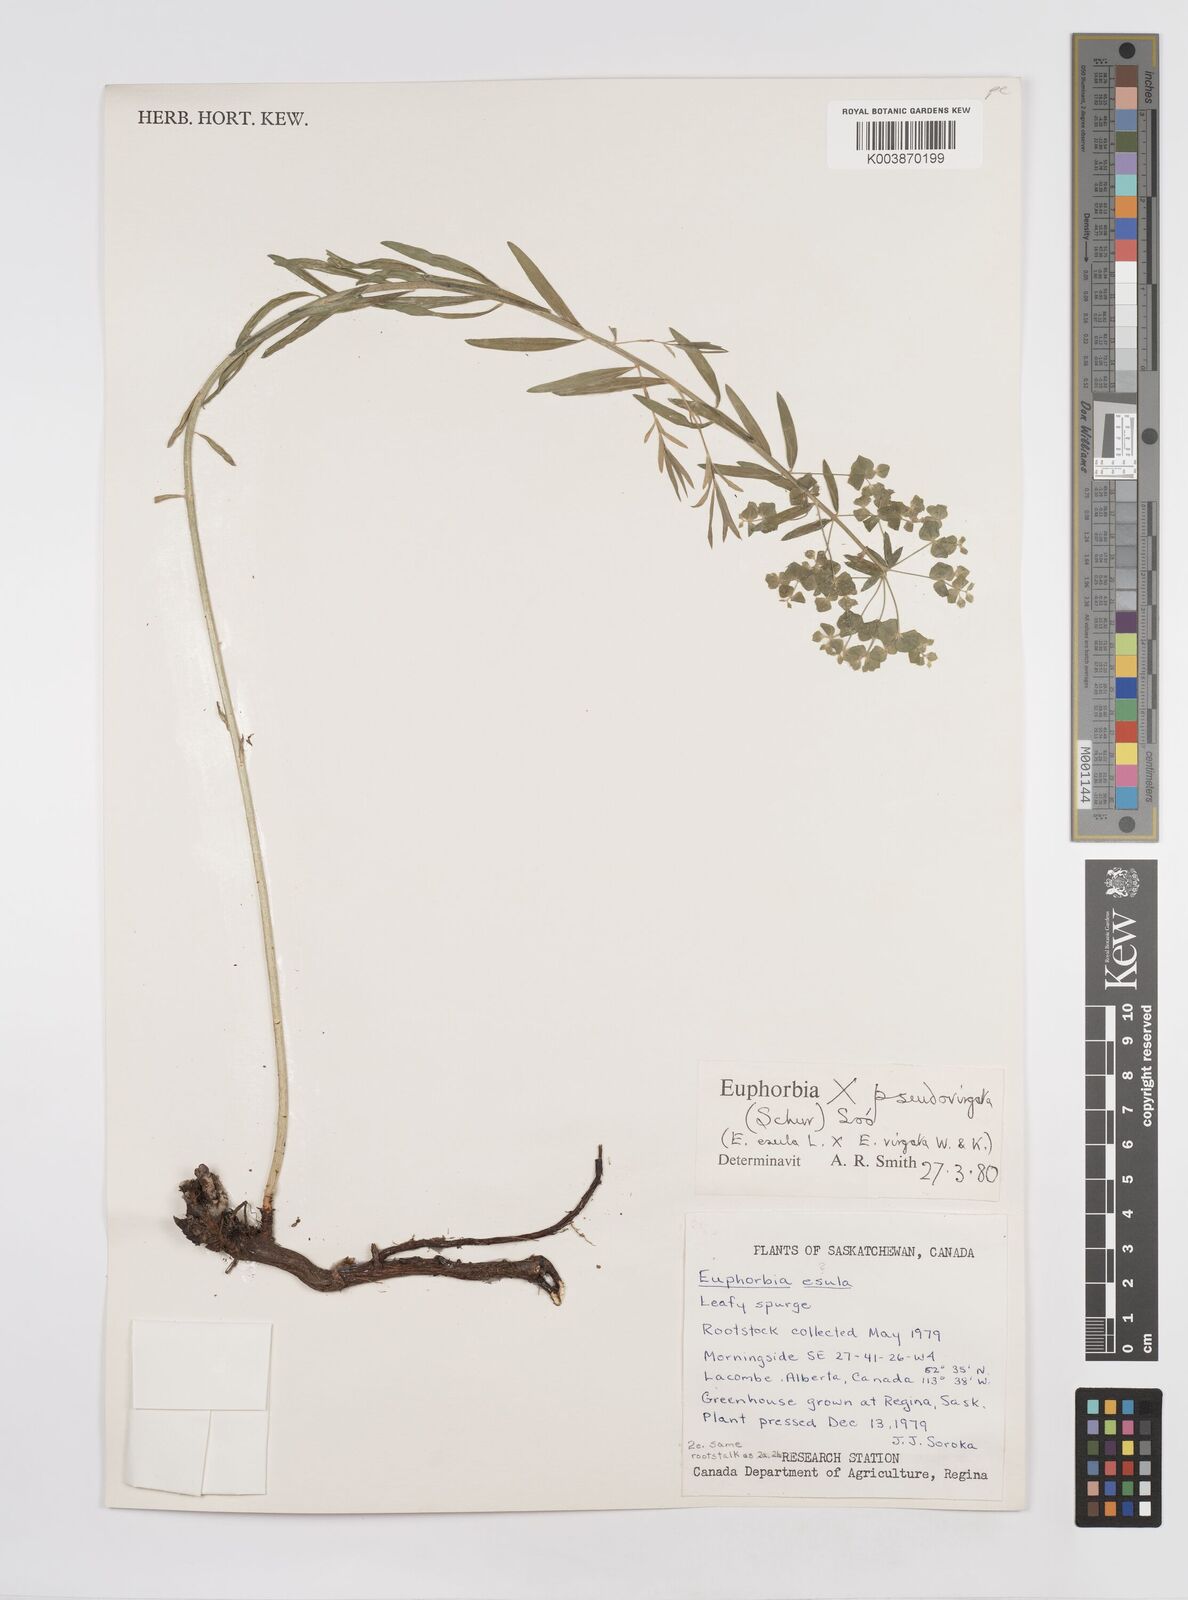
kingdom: Plantae
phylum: Tracheophyta
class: Magnoliopsida
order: Malpighiales
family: Euphorbiaceae
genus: Euphorbia
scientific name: Euphorbia virgata
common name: Leafy spurge
